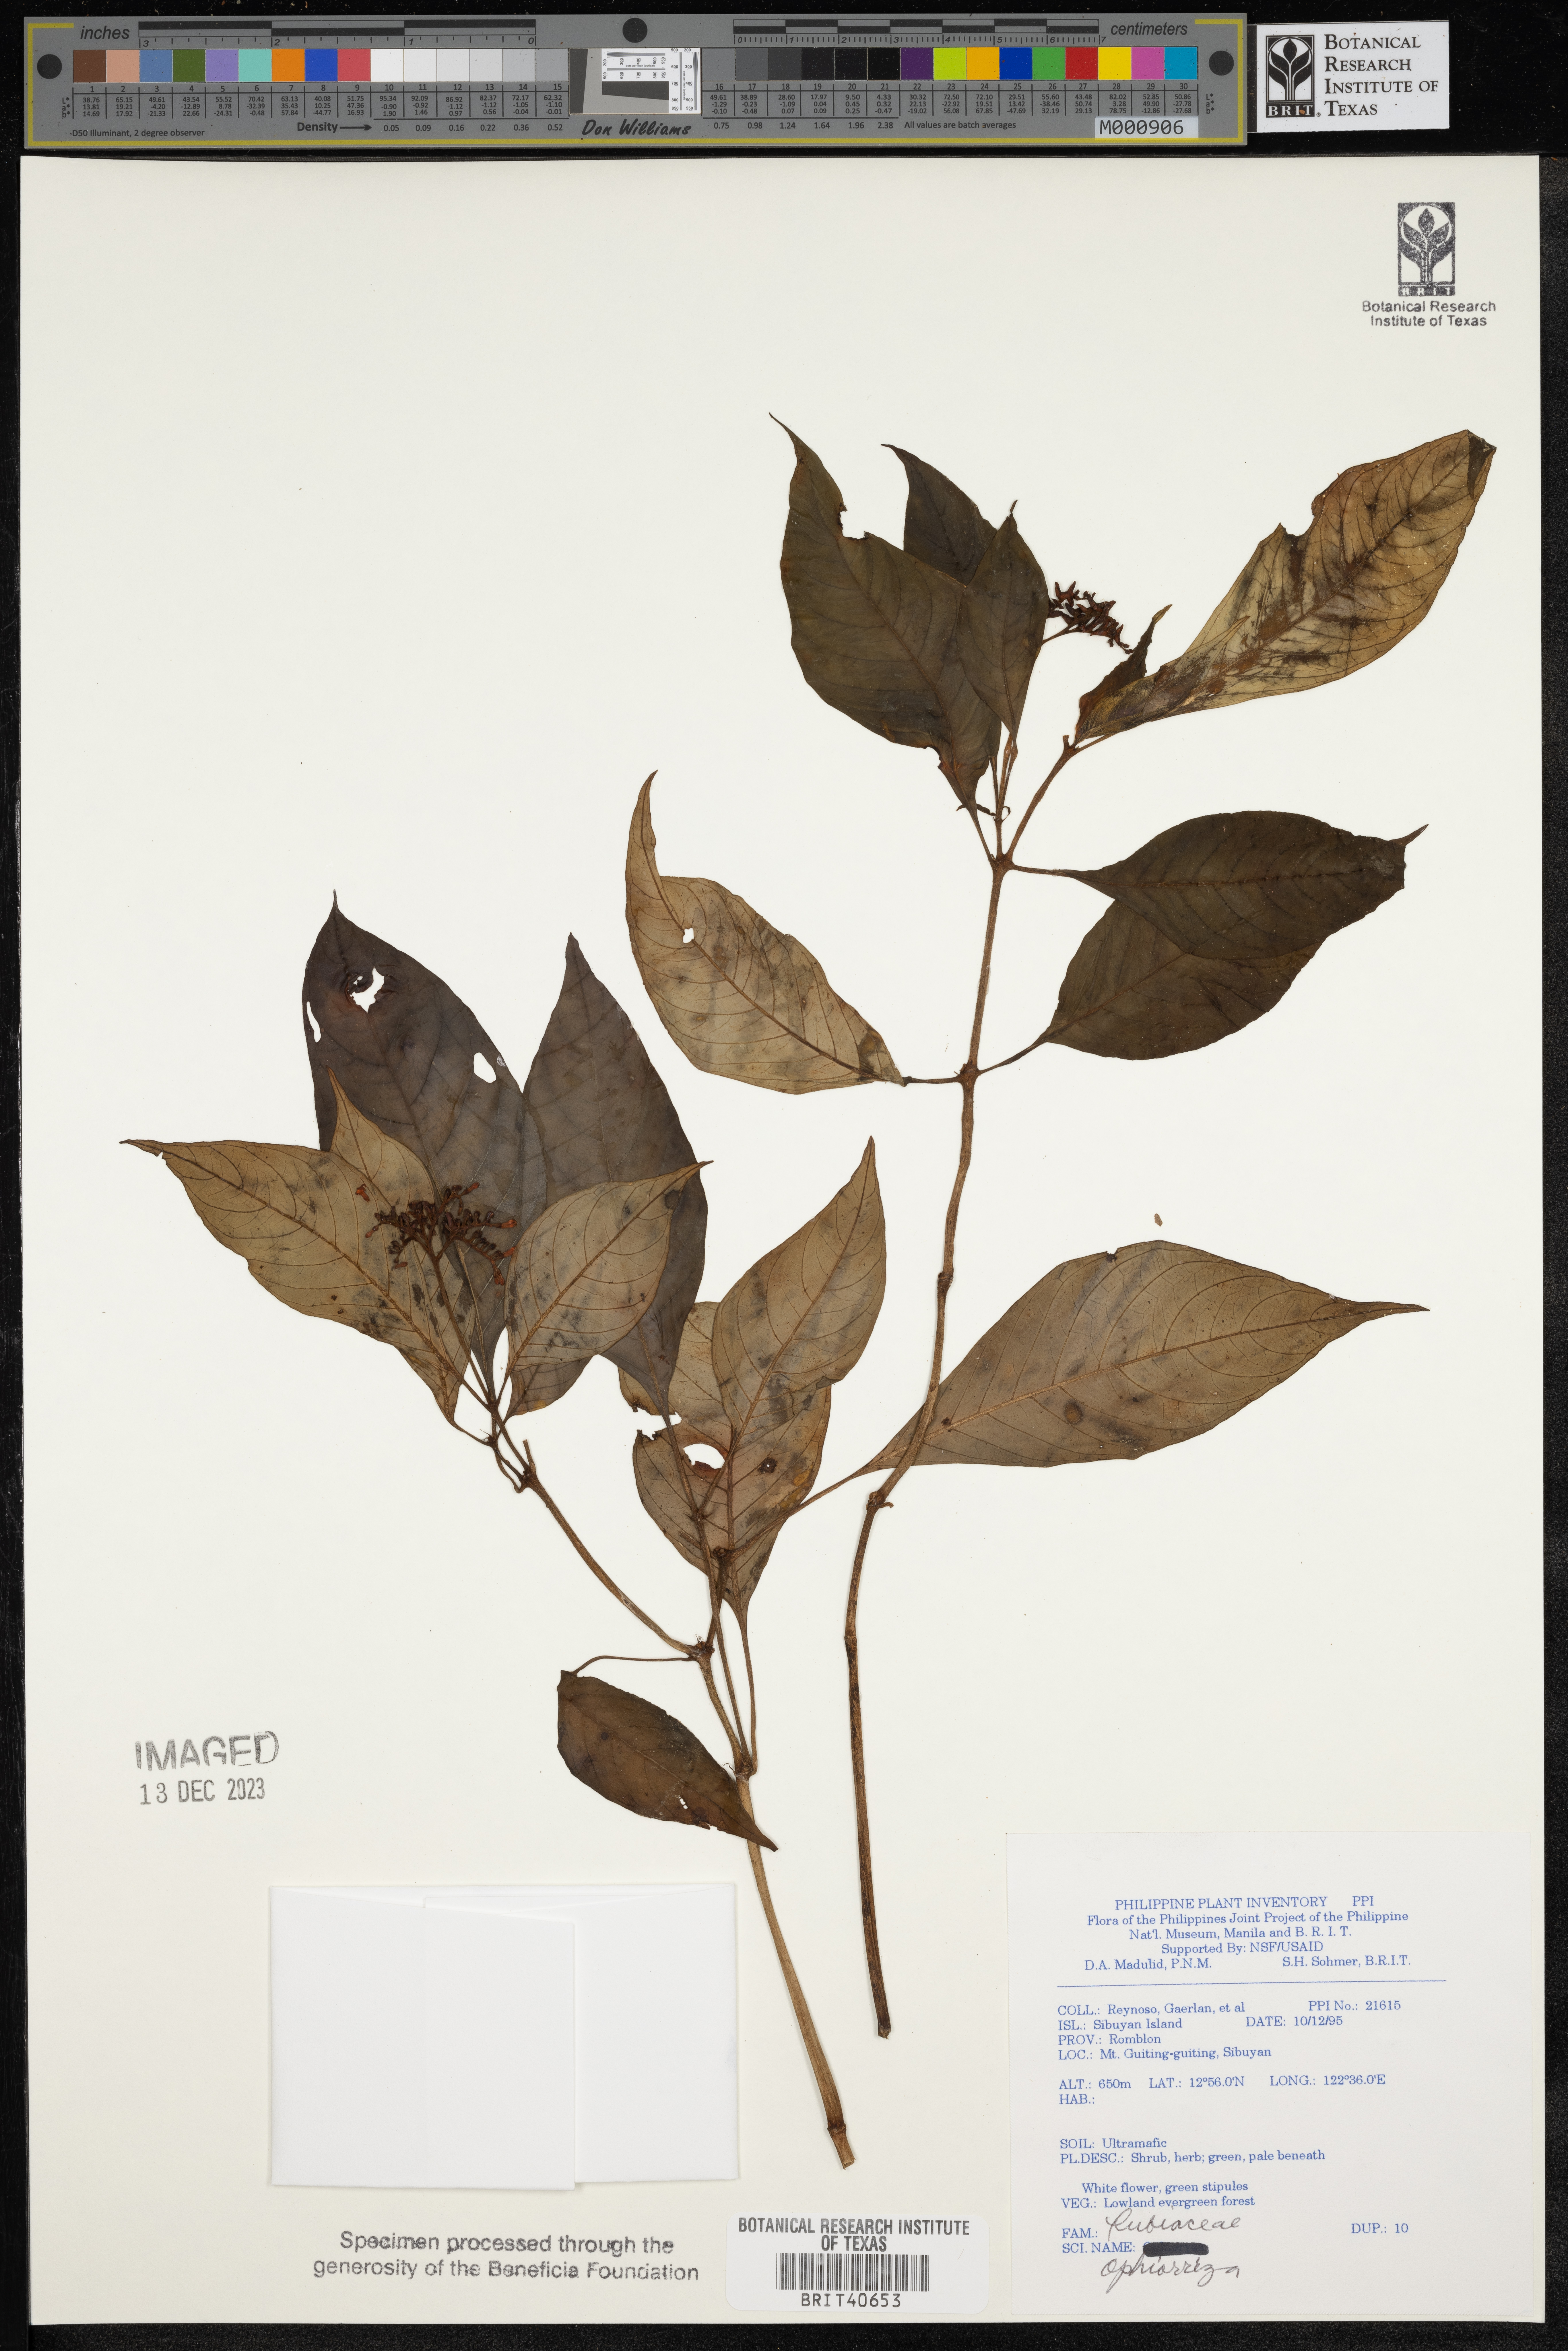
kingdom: Plantae
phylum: Tracheophyta
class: Magnoliopsida
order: Gentianales
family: Rubiaceae
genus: Ophiorrhiza
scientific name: Ophiorrhiza
